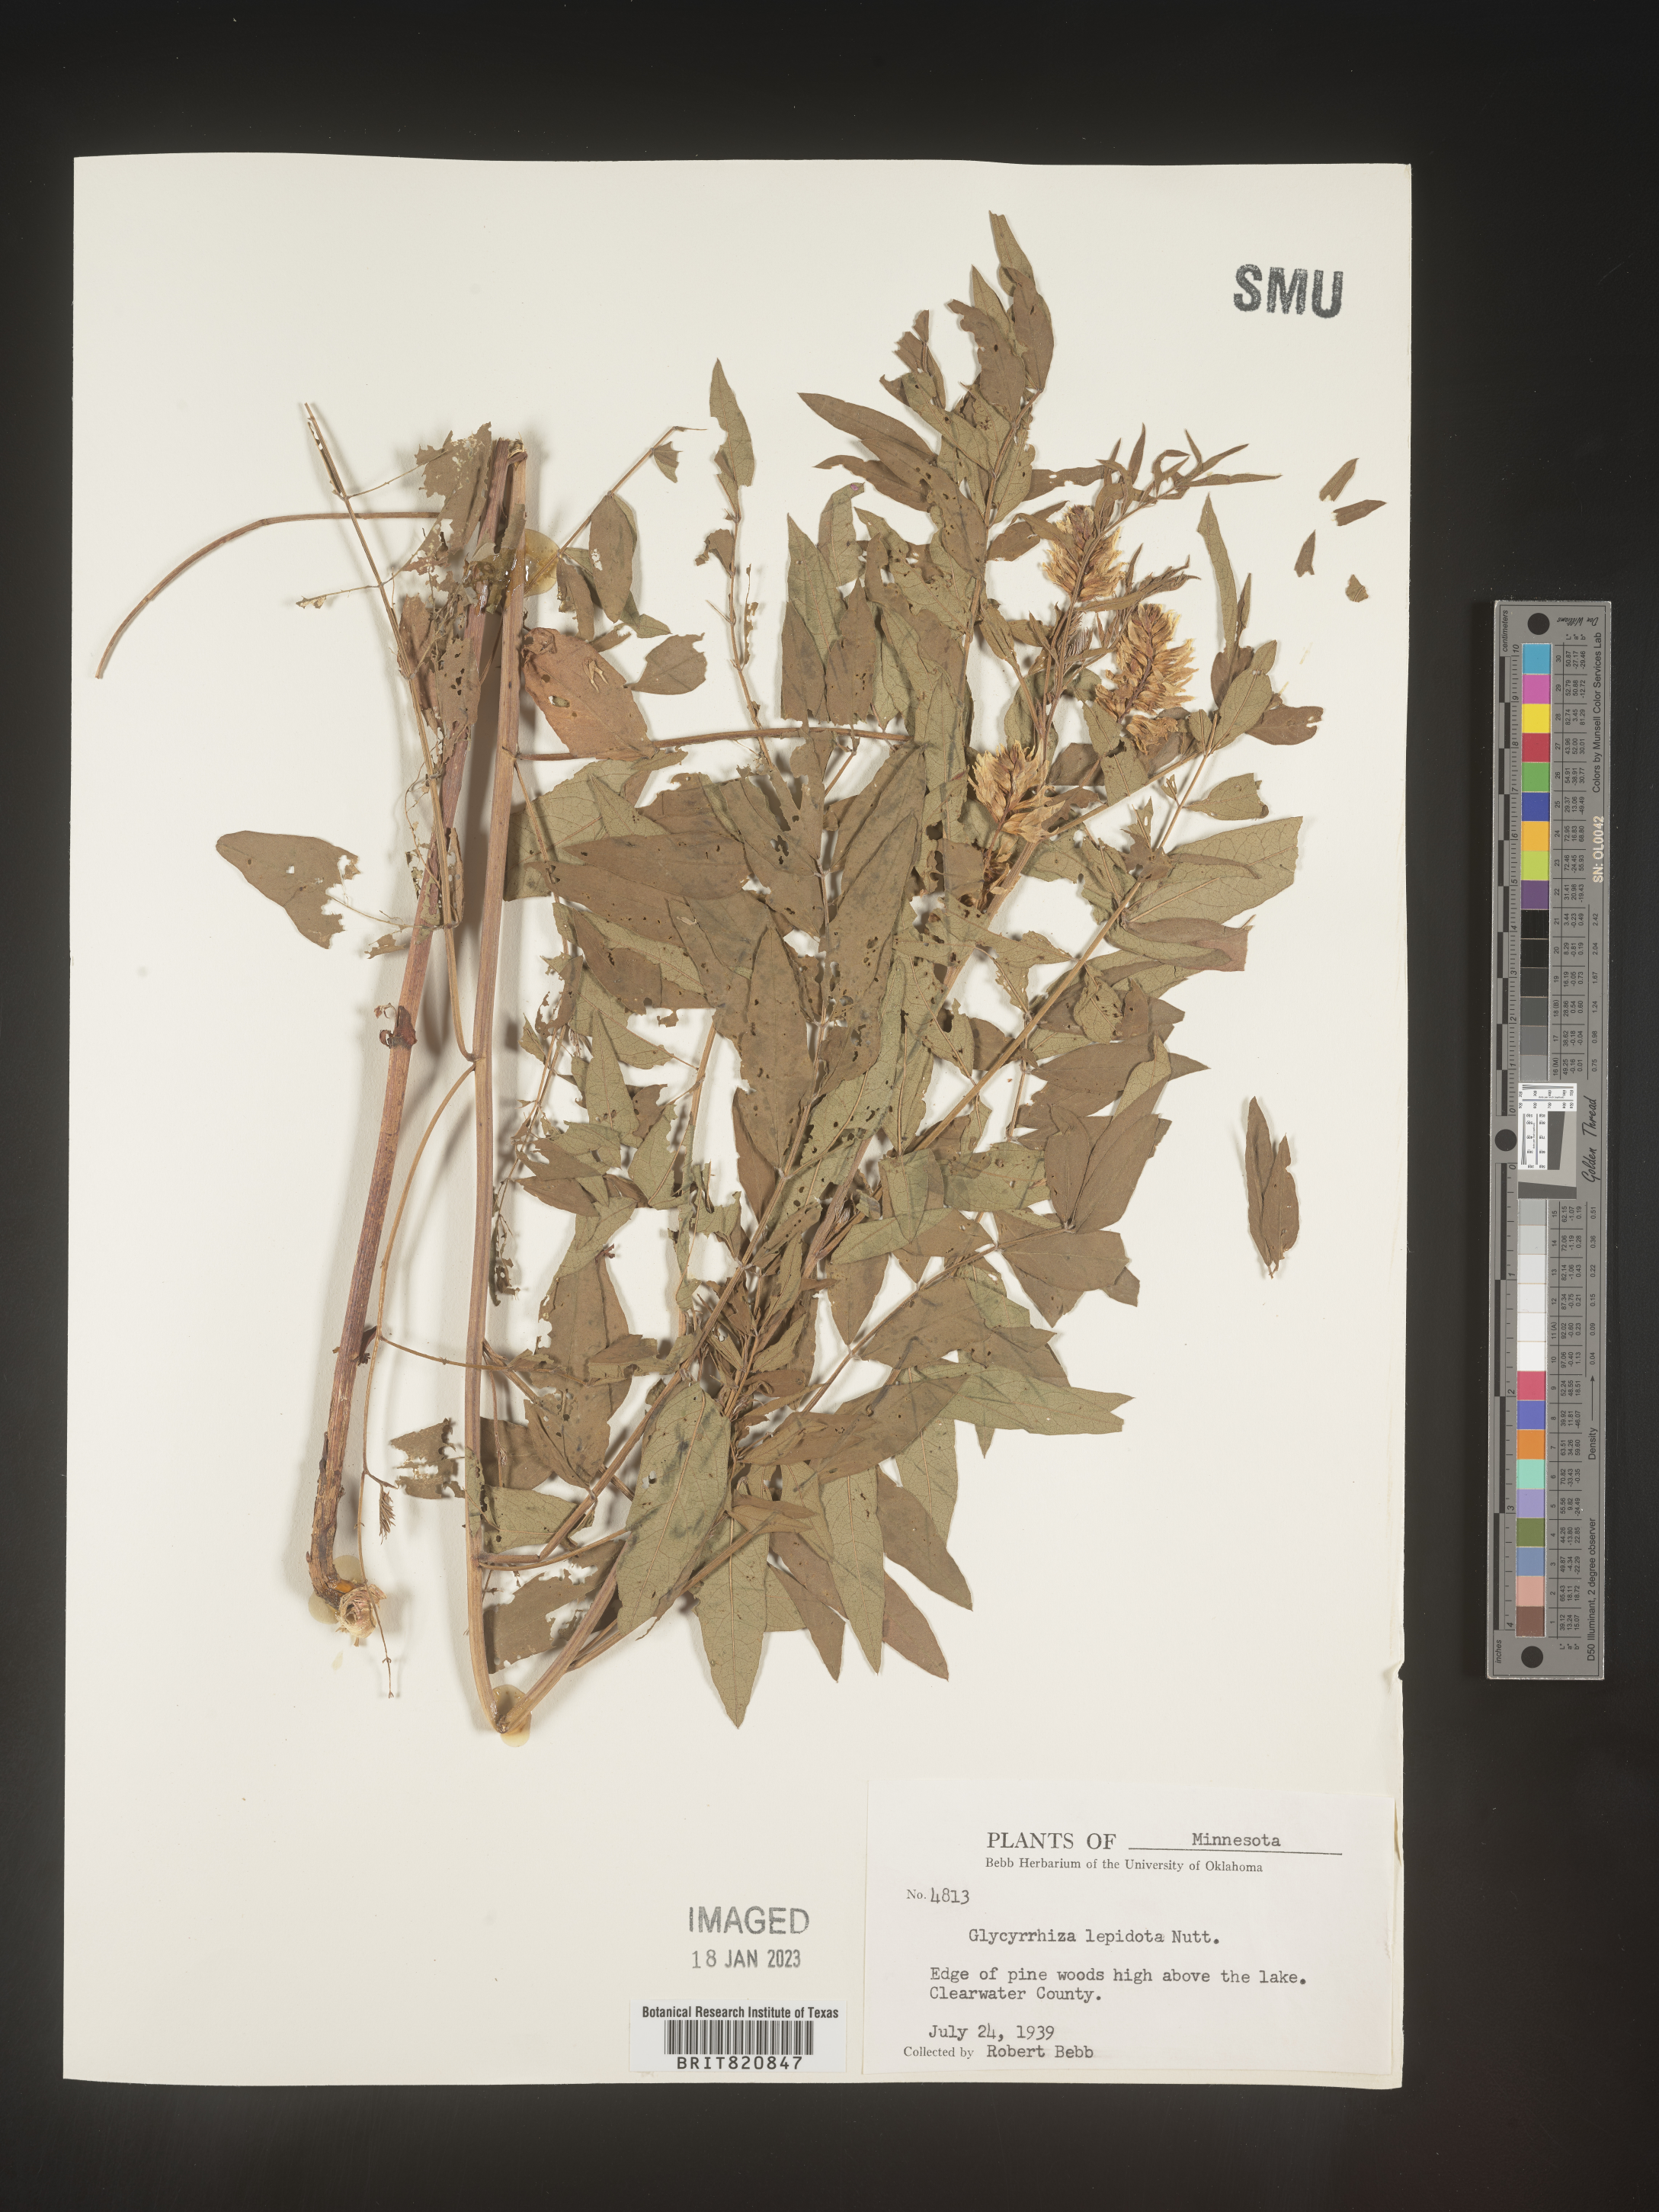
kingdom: Plantae
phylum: Tracheophyta
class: Magnoliopsida
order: Fabales
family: Fabaceae
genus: Glycyrrhiza
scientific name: Glycyrrhiza lepidota
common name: American liquorice
